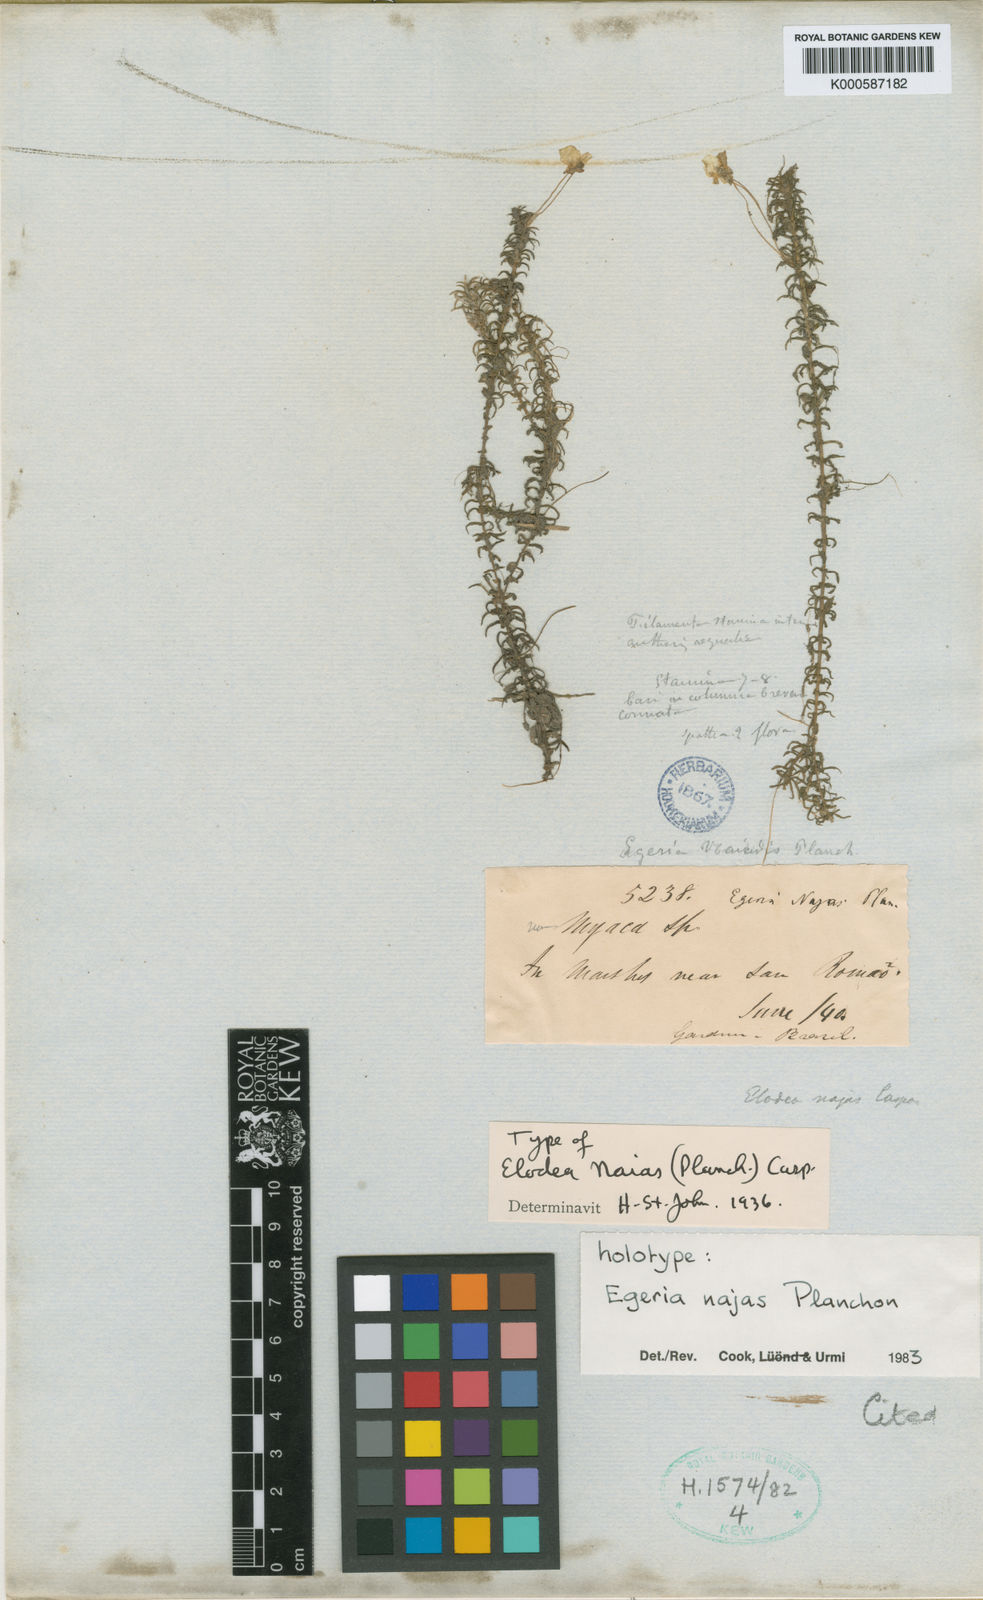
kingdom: Plantae
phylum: Tracheophyta
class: Liliopsida
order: Alismatales
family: Hydrocharitaceae
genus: Elodea
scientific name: Elodea najas
